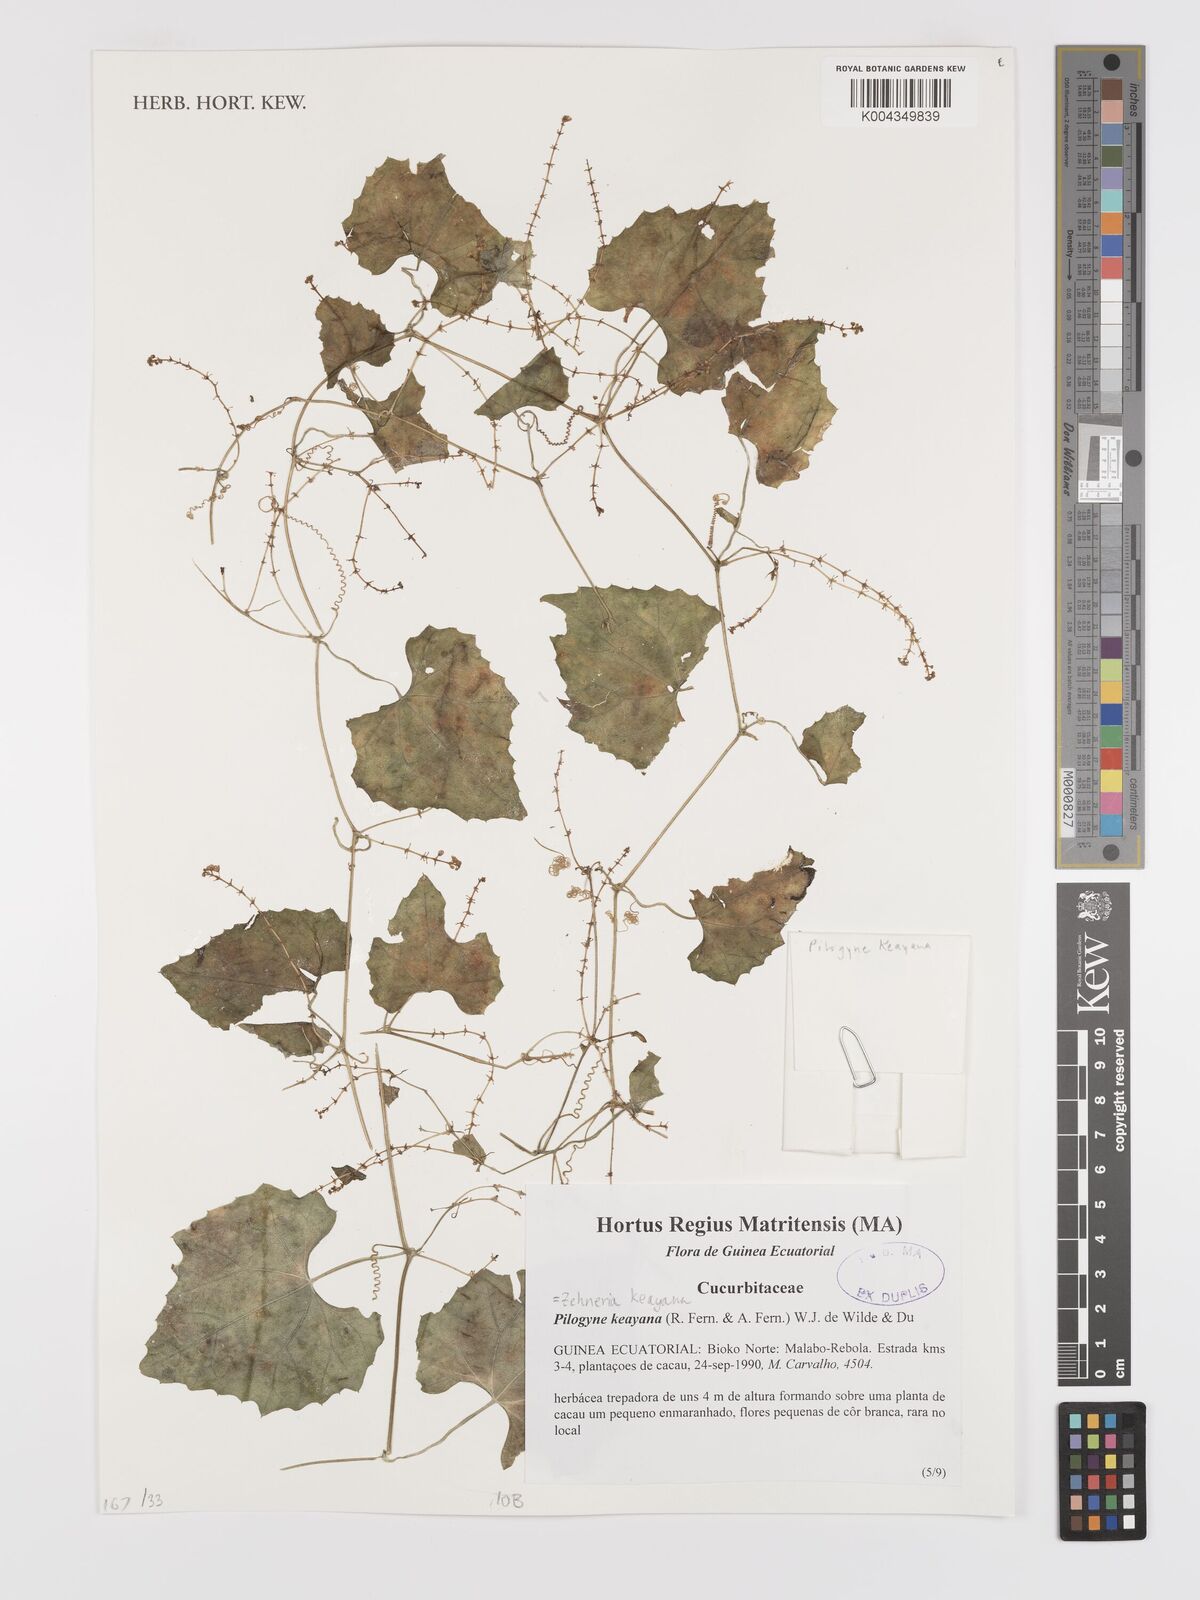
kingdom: Plantae
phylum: Tracheophyta
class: Magnoliopsida
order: Cucurbitales
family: Cucurbitaceae
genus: Zehneria
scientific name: Zehneria keayana
